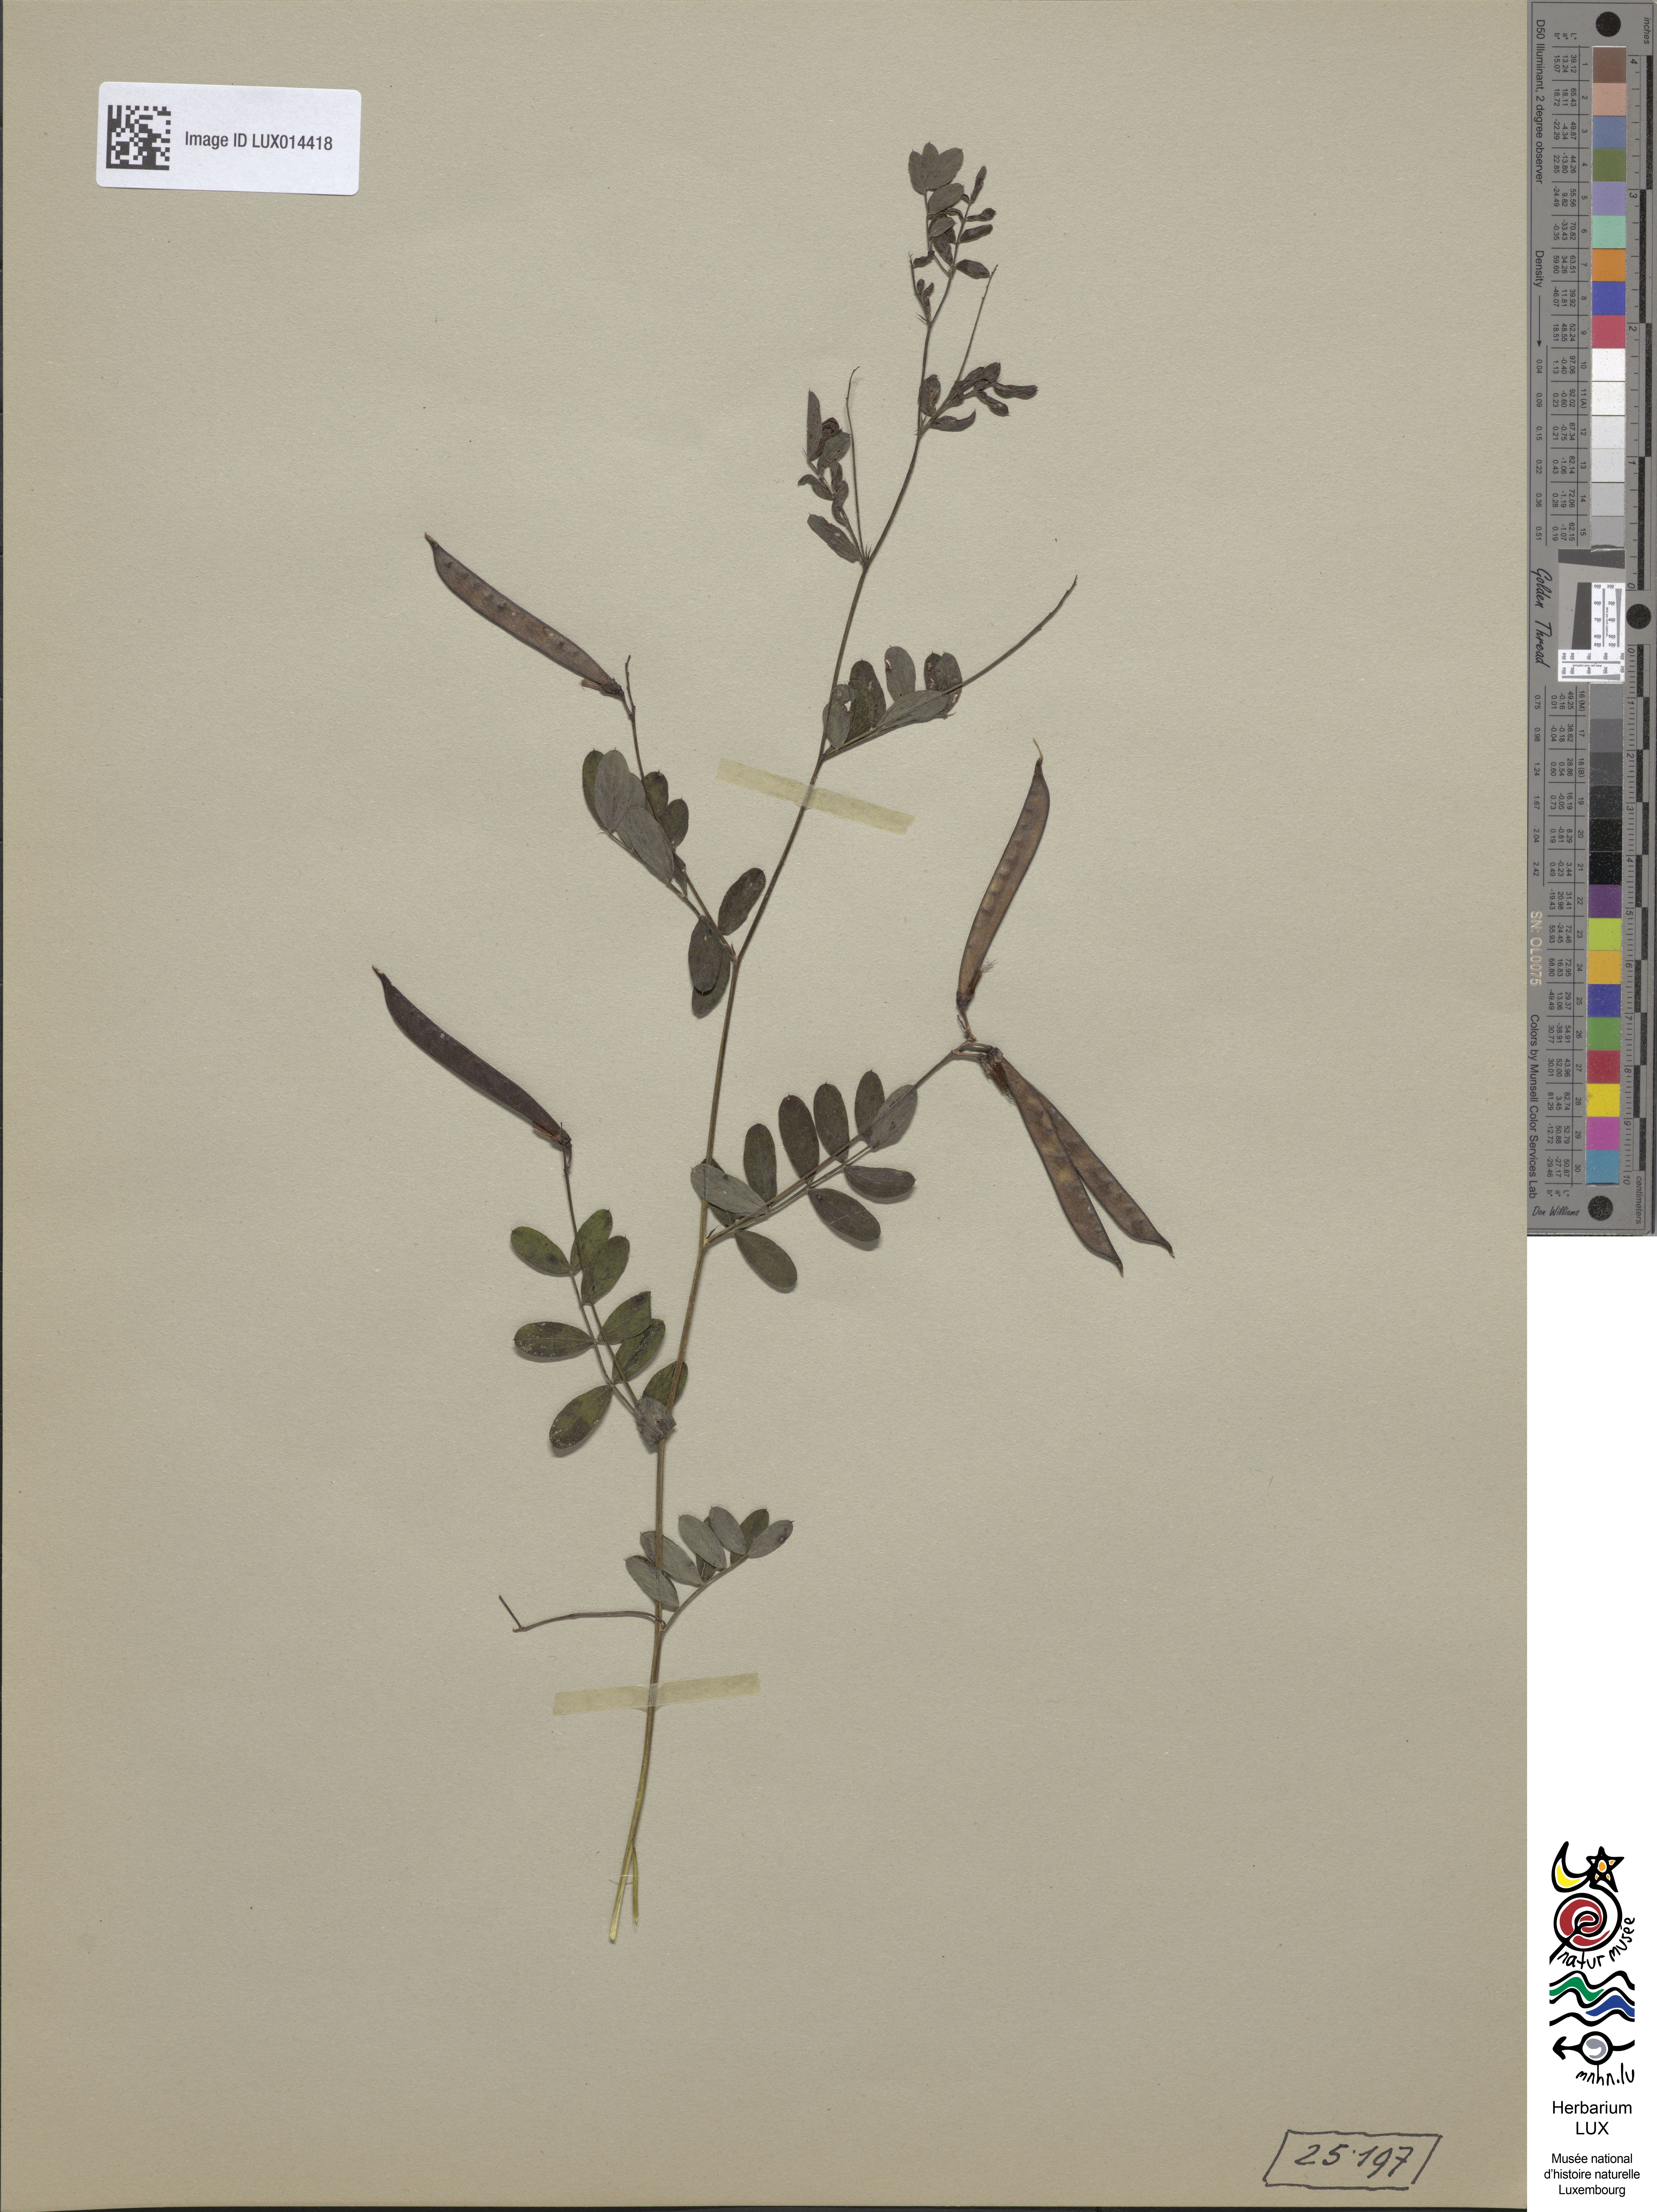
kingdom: Plantae
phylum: Tracheophyta
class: Magnoliopsida
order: Fabales
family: Fabaceae
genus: Lathyrus
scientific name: Lathyrus niger
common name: Black pea
